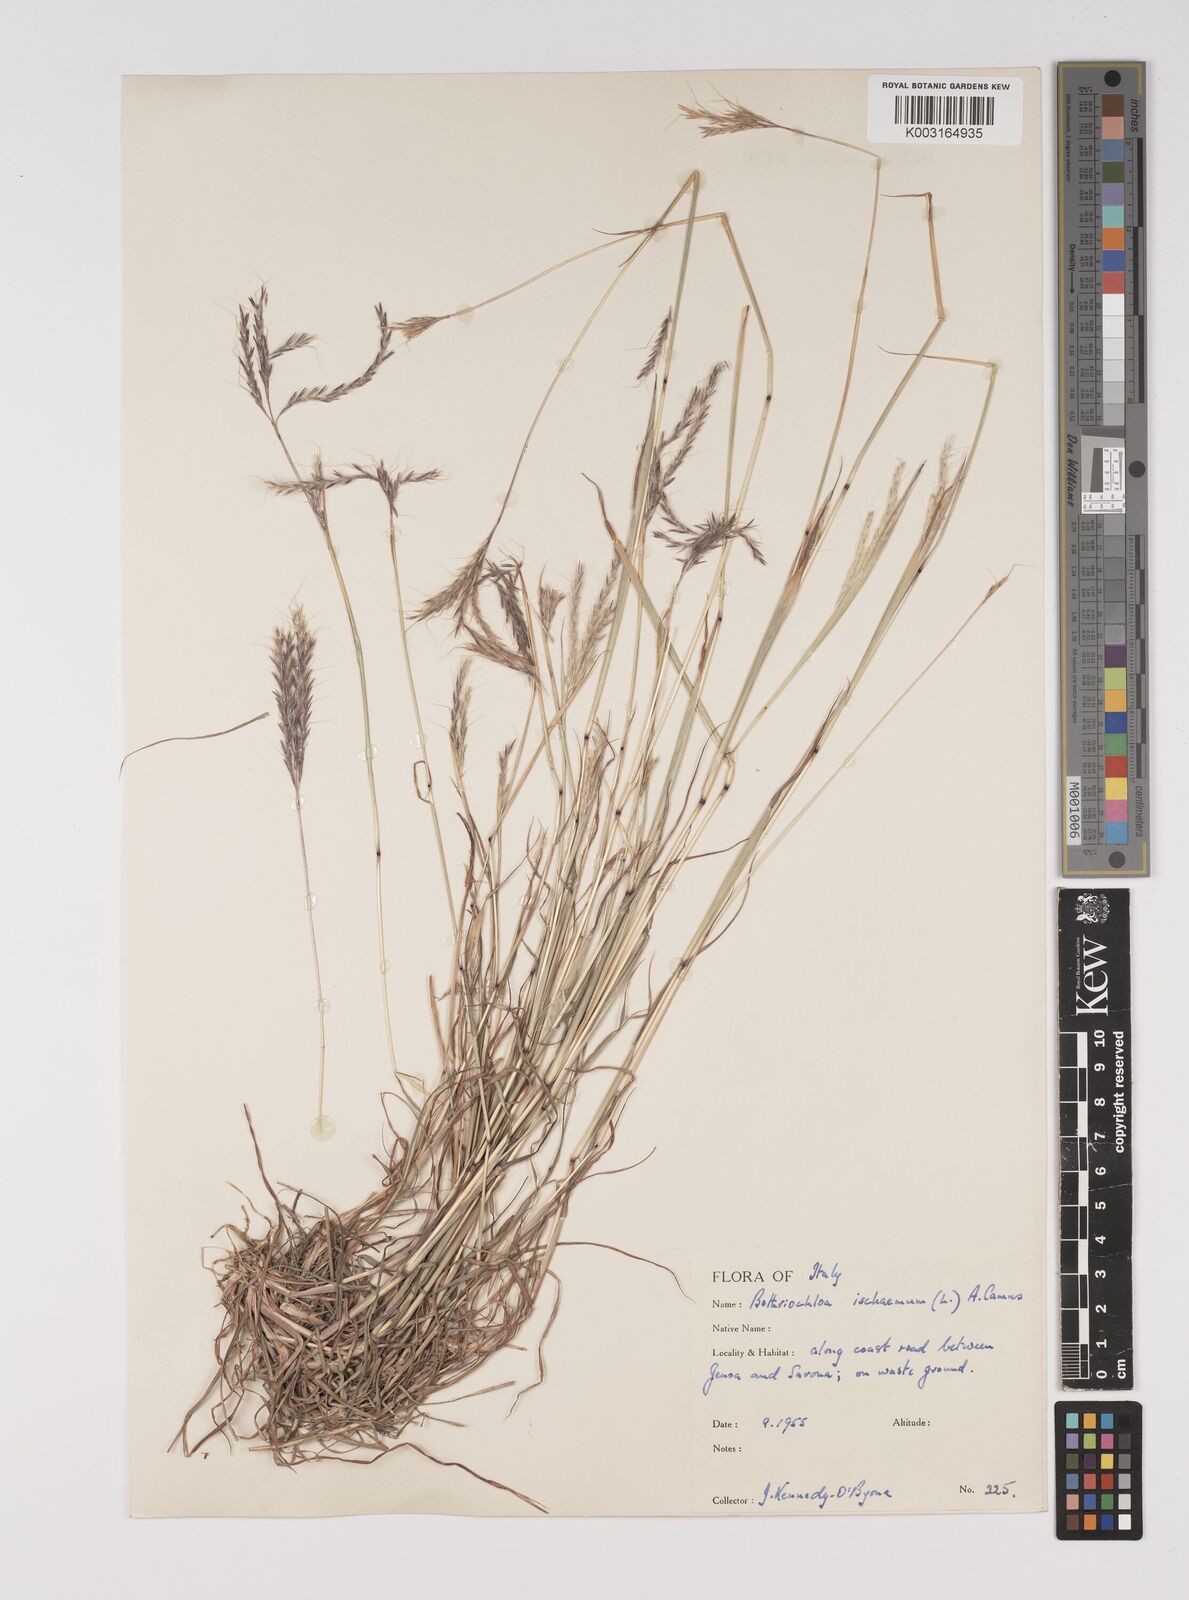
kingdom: Plantae
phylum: Tracheophyta
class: Liliopsida
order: Poales
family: Poaceae
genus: Bothriochloa
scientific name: Bothriochloa ischaemum
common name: Yellow bluestem
